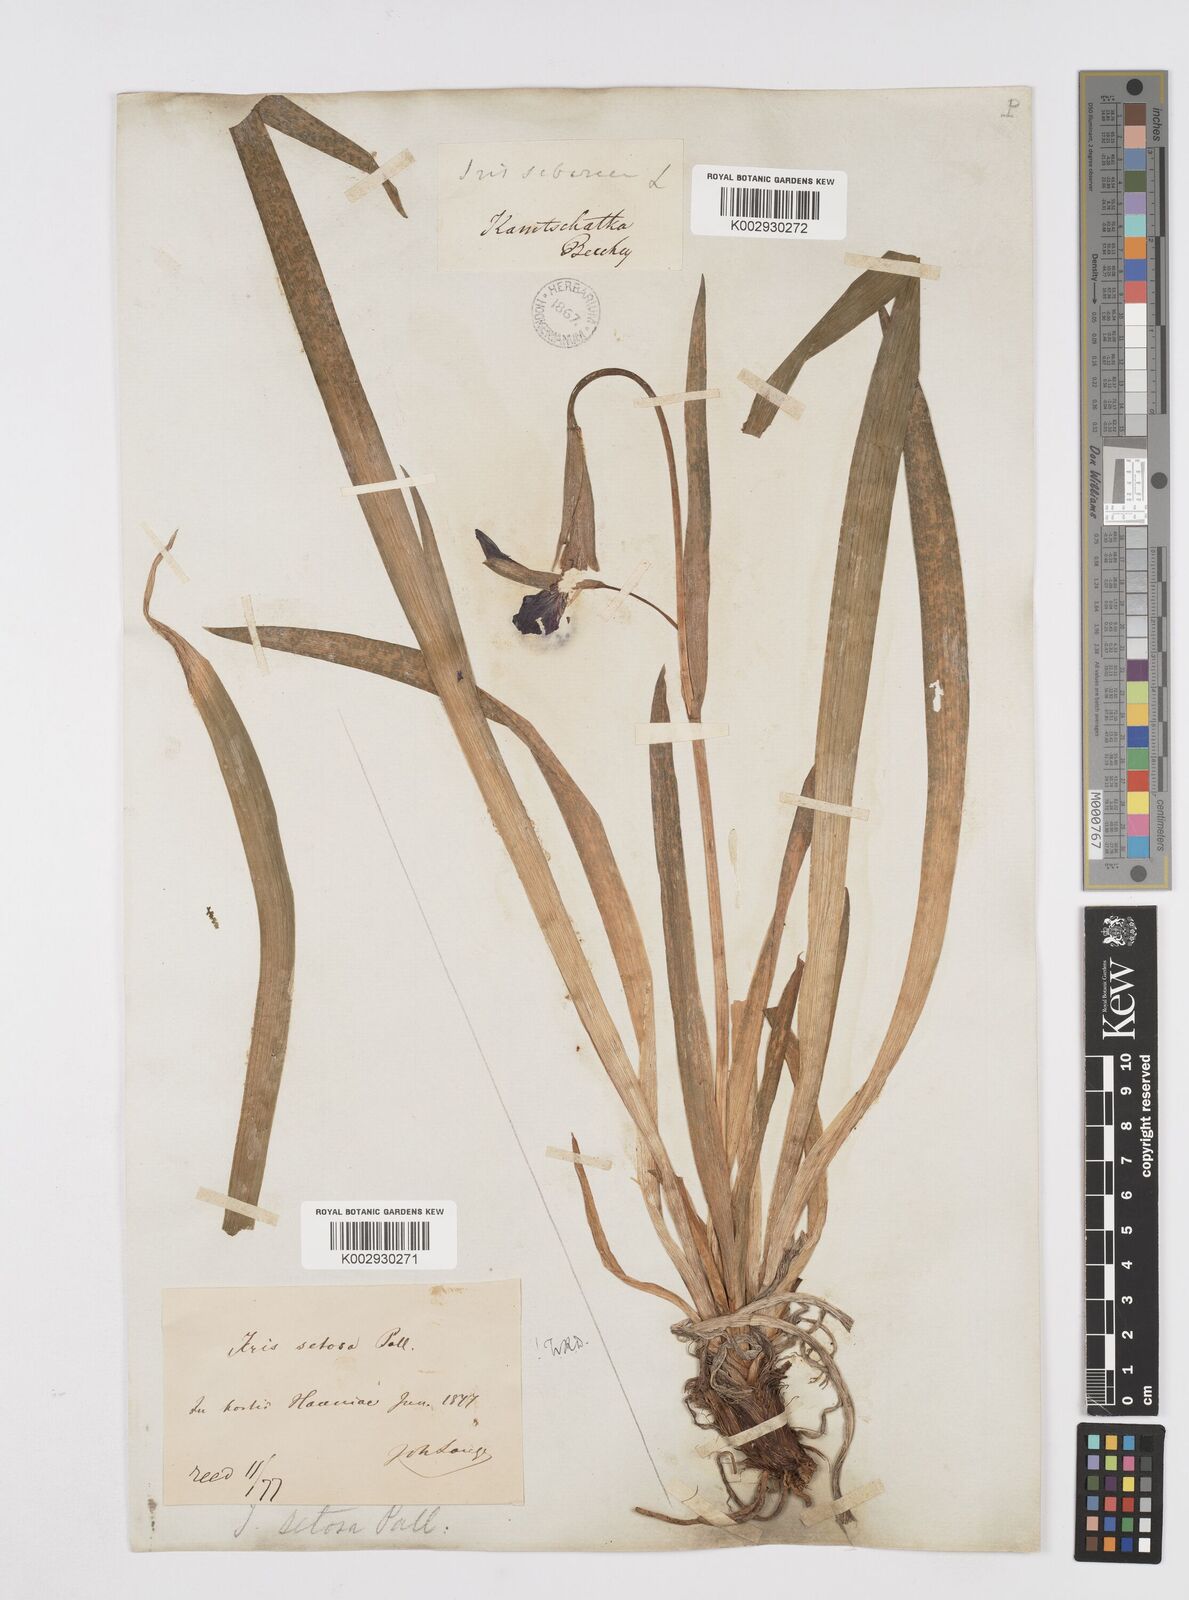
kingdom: Plantae
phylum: Tracheophyta
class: Liliopsida
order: Asparagales
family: Iridaceae
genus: Iris
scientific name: Iris setosa
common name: Arctic blue flag
